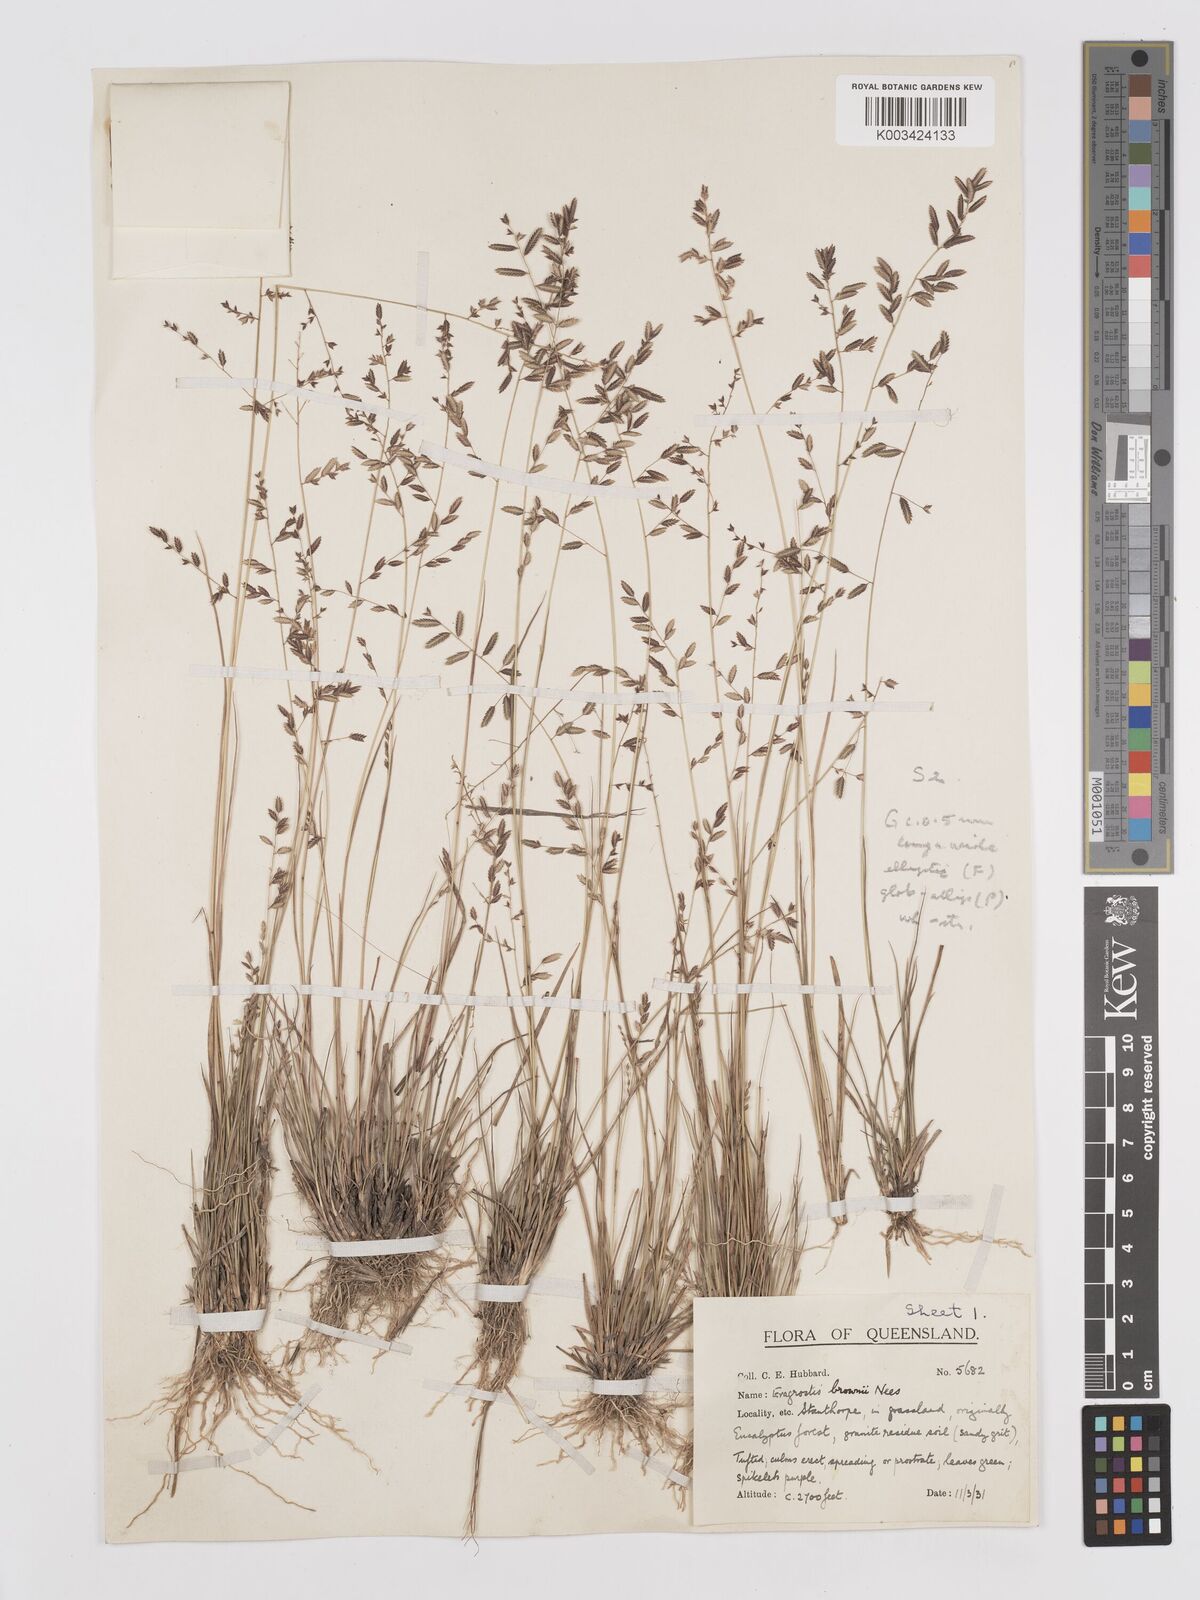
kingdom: Plantae
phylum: Tracheophyta
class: Liliopsida
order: Poales
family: Poaceae
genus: Eragrostis
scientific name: Eragrostis brownii
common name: Lovegrass
